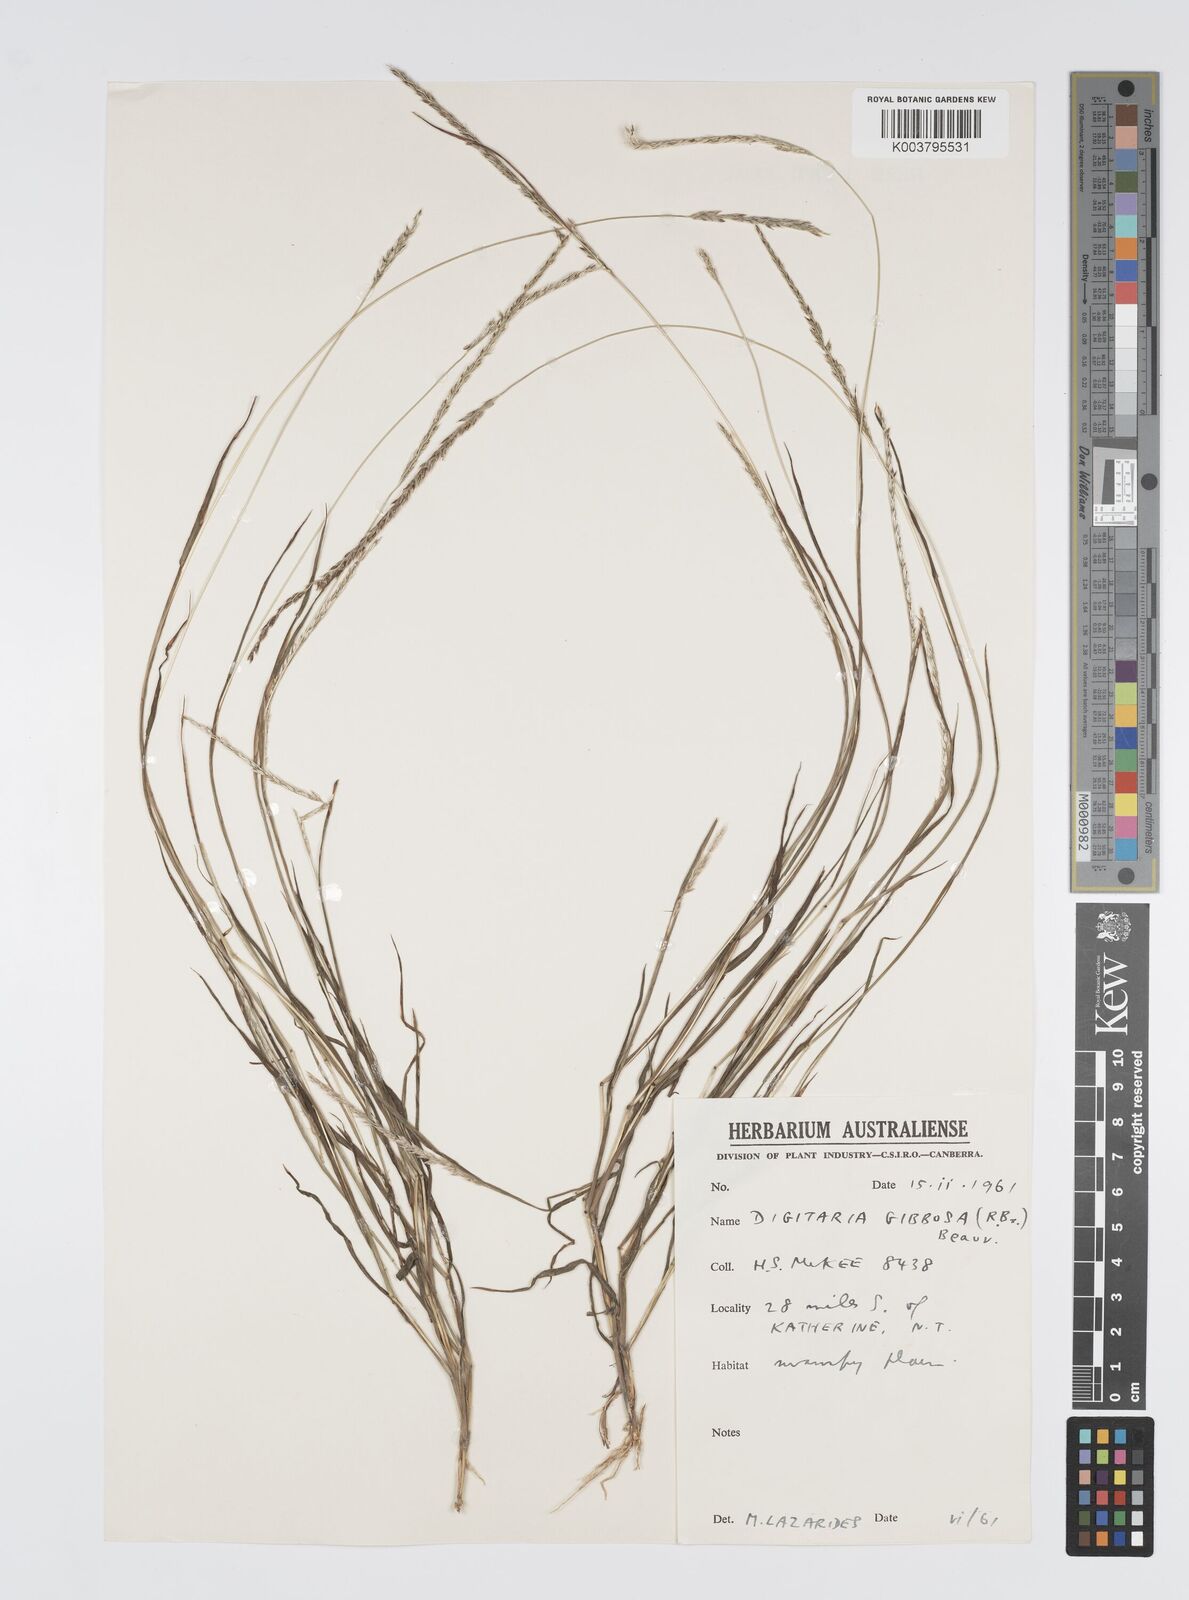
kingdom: Plantae
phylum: Tracheophyta
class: Liliopsida
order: Poales
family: Poaceae
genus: Digitaria
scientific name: Digitaria gibbosa
